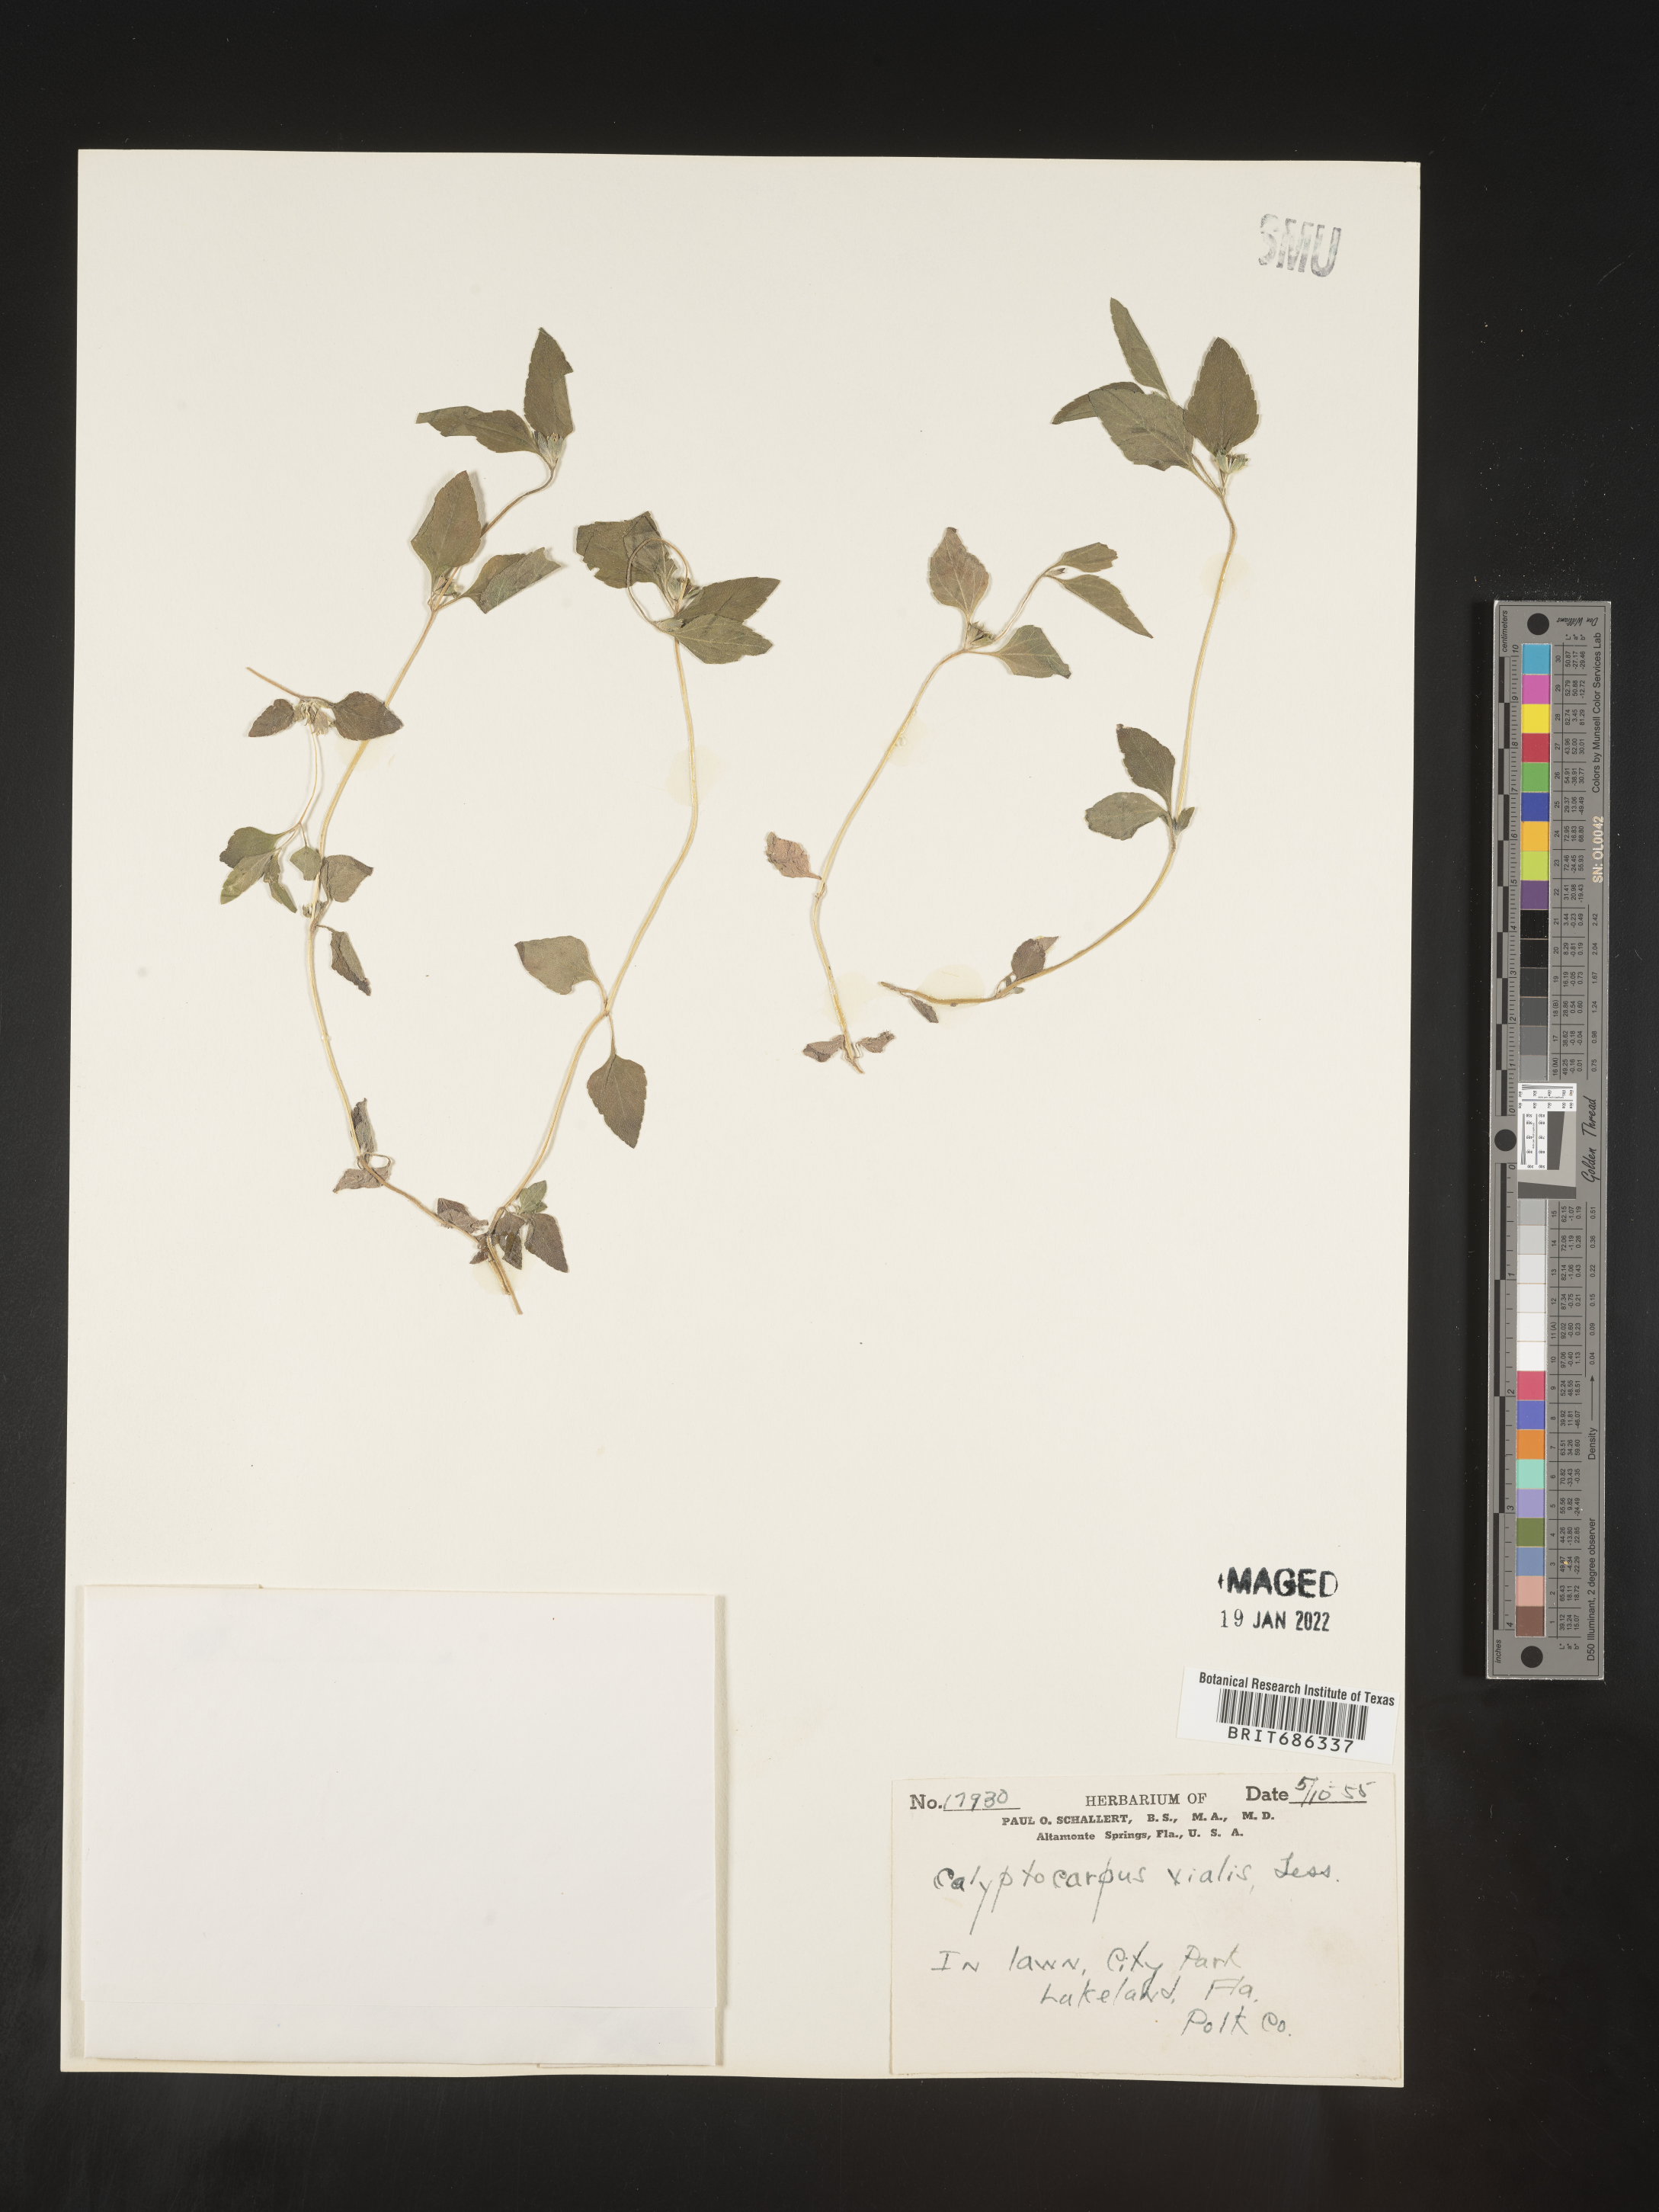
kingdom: Plantae
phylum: Tracheophyta
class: Magnoliopsida
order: Asterales
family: Asteraceae
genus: Calyptocarpus
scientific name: Calyptocarpus
